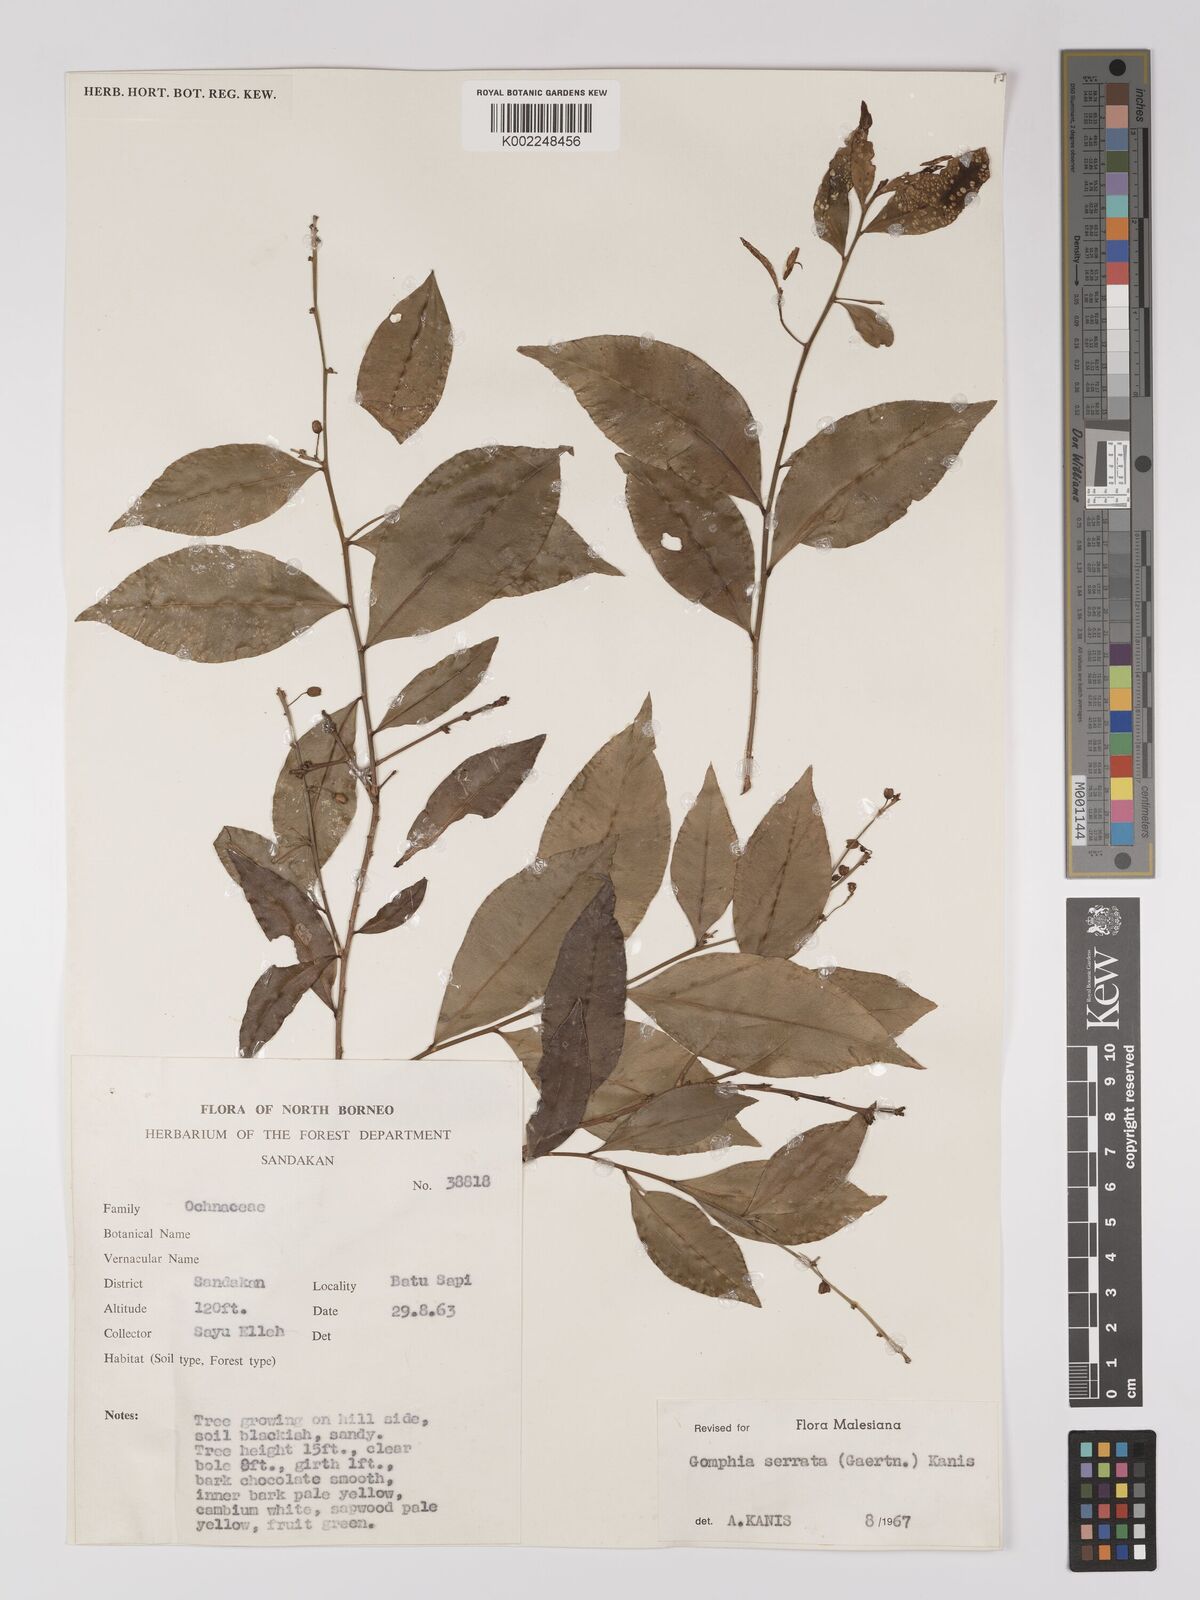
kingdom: Plantae
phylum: Tracheophyta
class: Magnoliopsida
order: Malpighiales
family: Ochnaceae
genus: Gomphia
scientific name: Gomphia serrata
